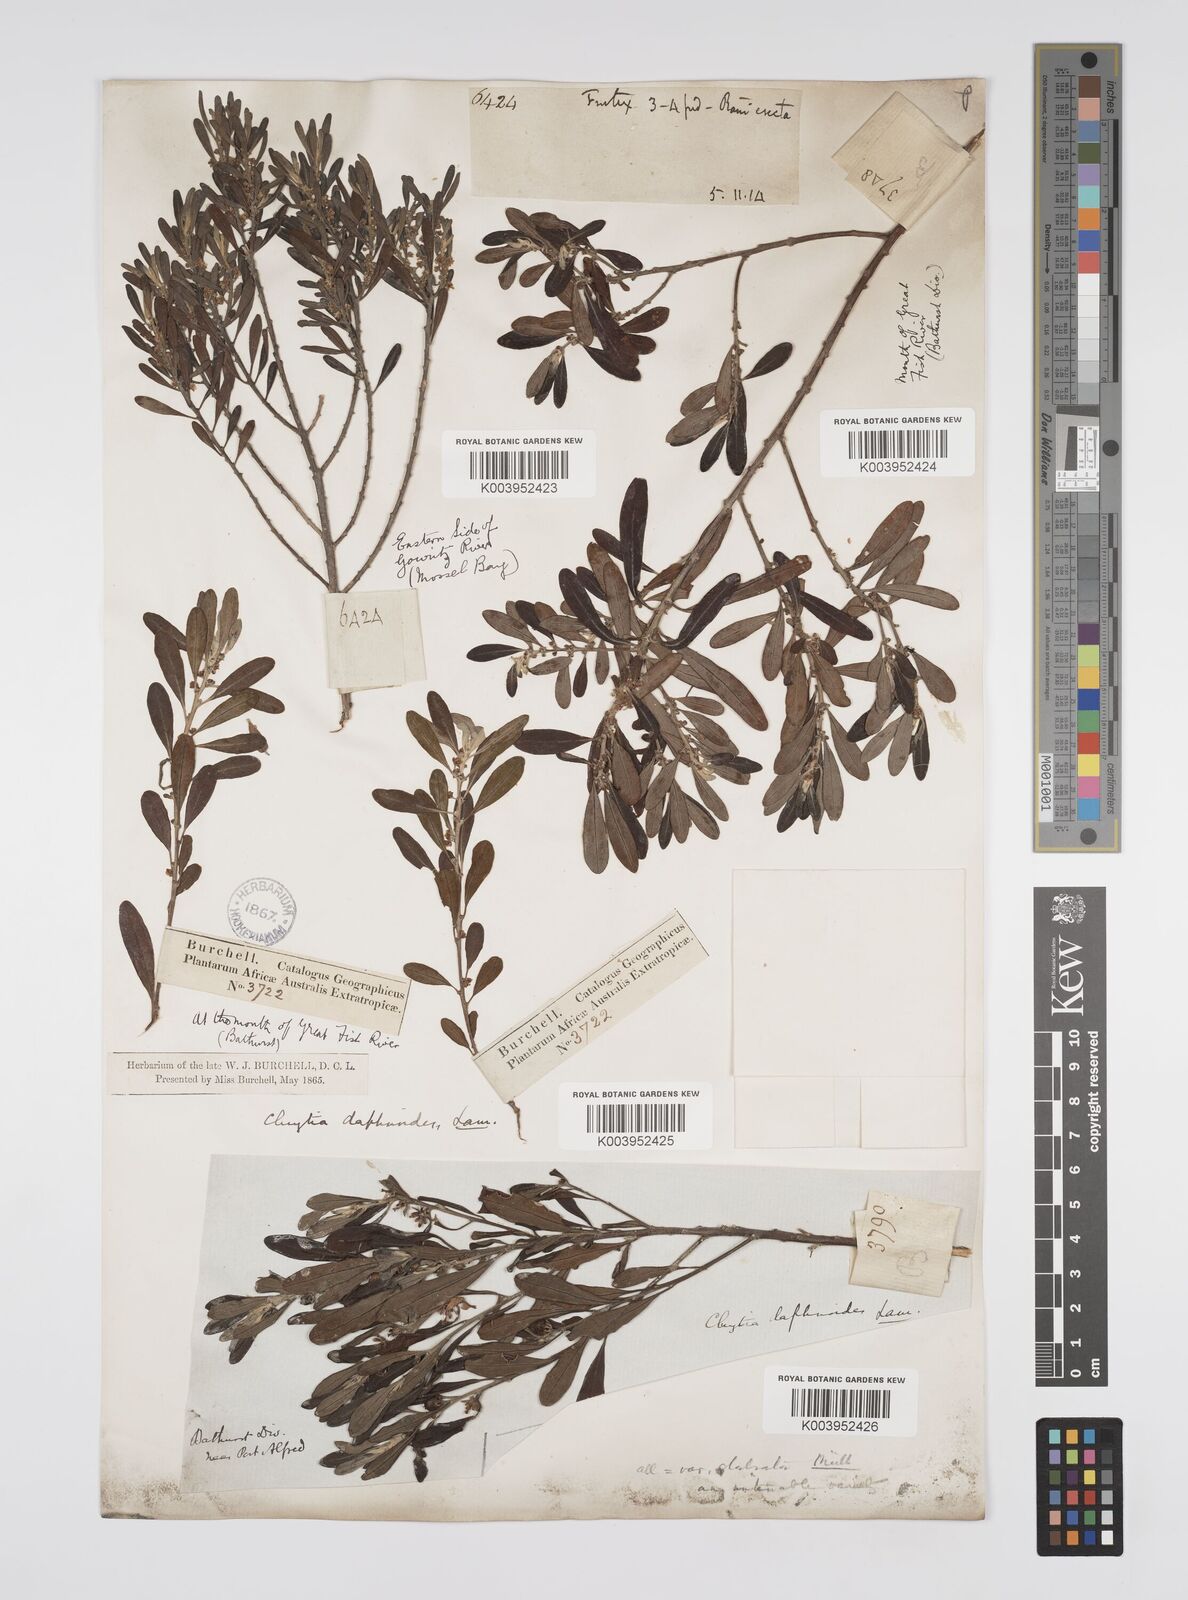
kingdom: Plantae
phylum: Tracheophyta
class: Magnoliopsida
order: Malpighiales
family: Peraceae
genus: Clutia
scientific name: Clutia daphnoides
